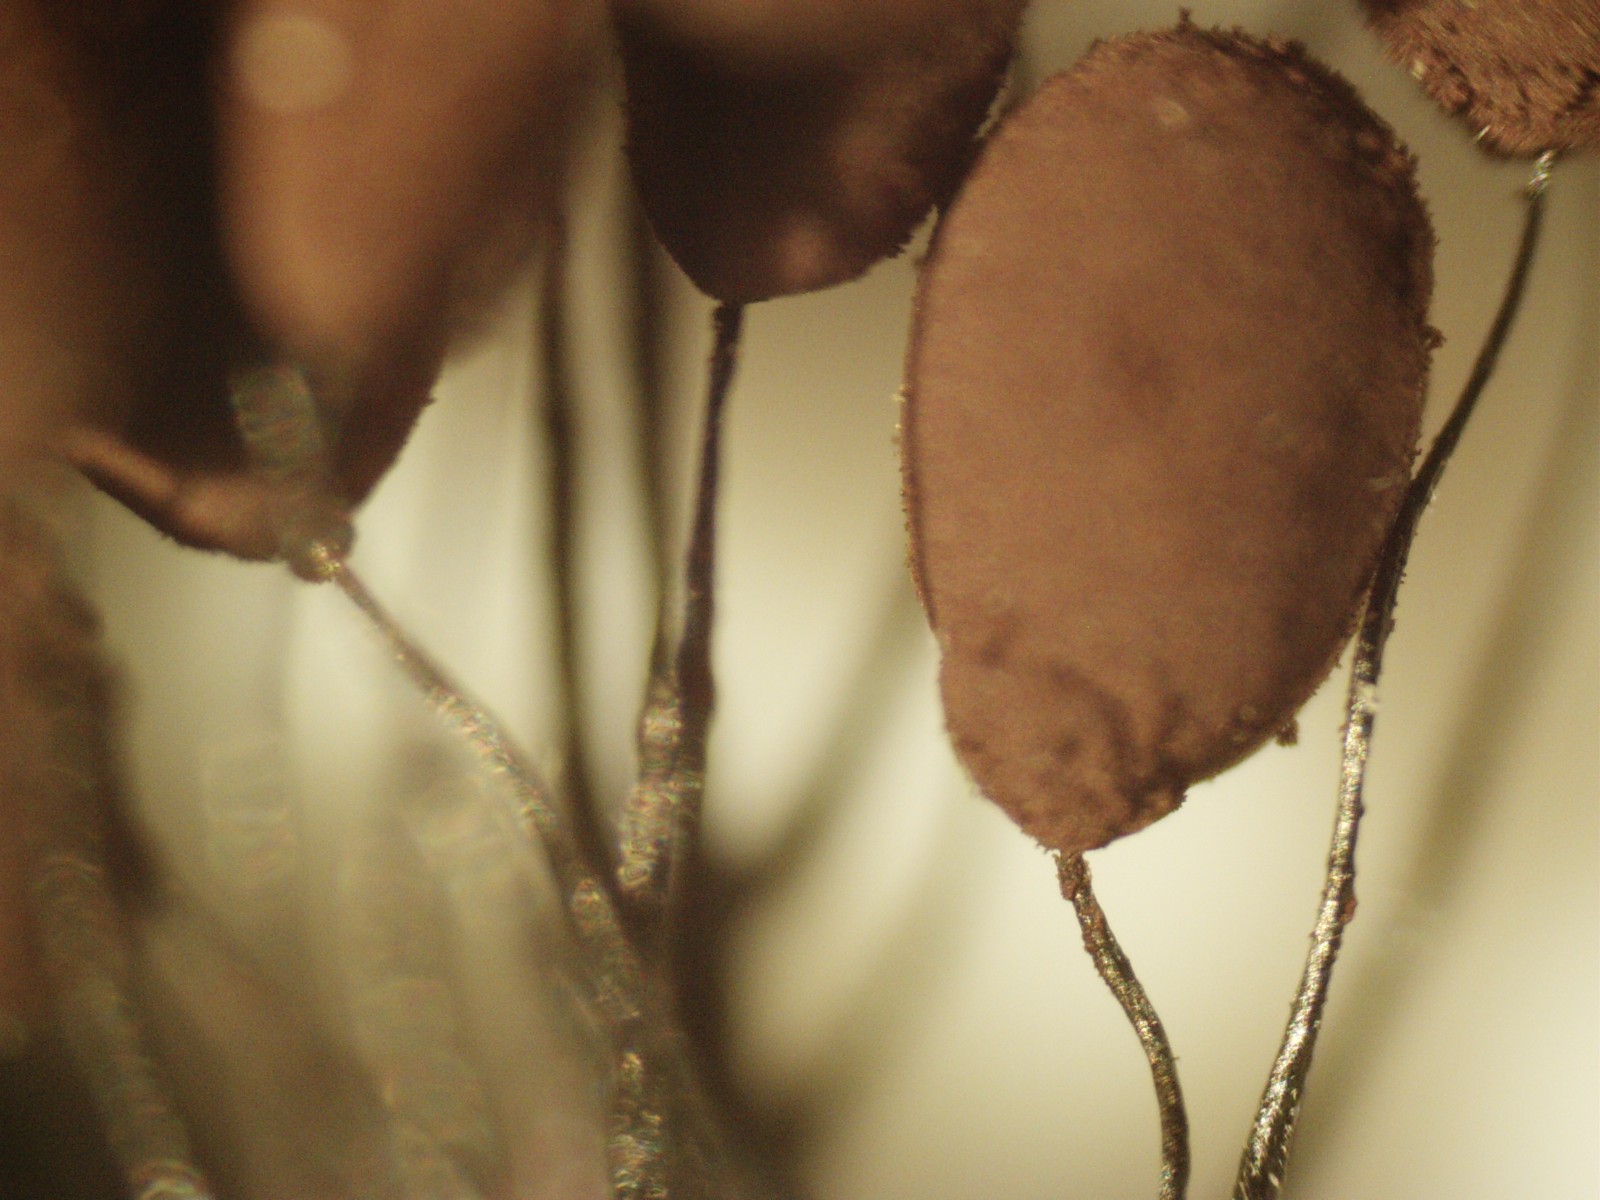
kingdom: Protozoa
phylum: Mycetozoa
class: Myxomycetes
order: Stemonitidales
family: Stemonitidaceae
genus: Comatricha
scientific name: Comatricha nigra
